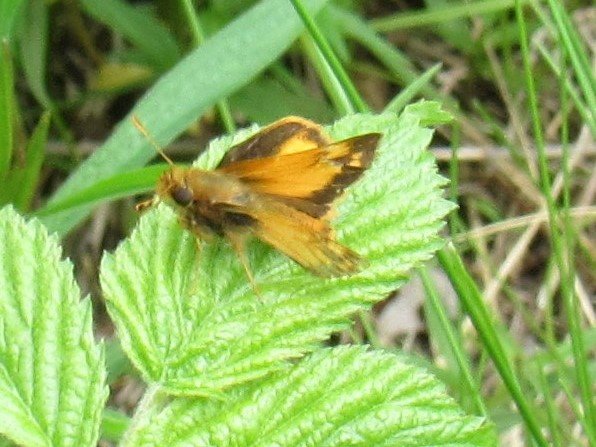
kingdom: Animalia
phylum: Arthropoda
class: Insecta
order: Lepidoptera
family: Hesperiidae
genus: Lon
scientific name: Lon zabulon
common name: Zabulon Skipper
